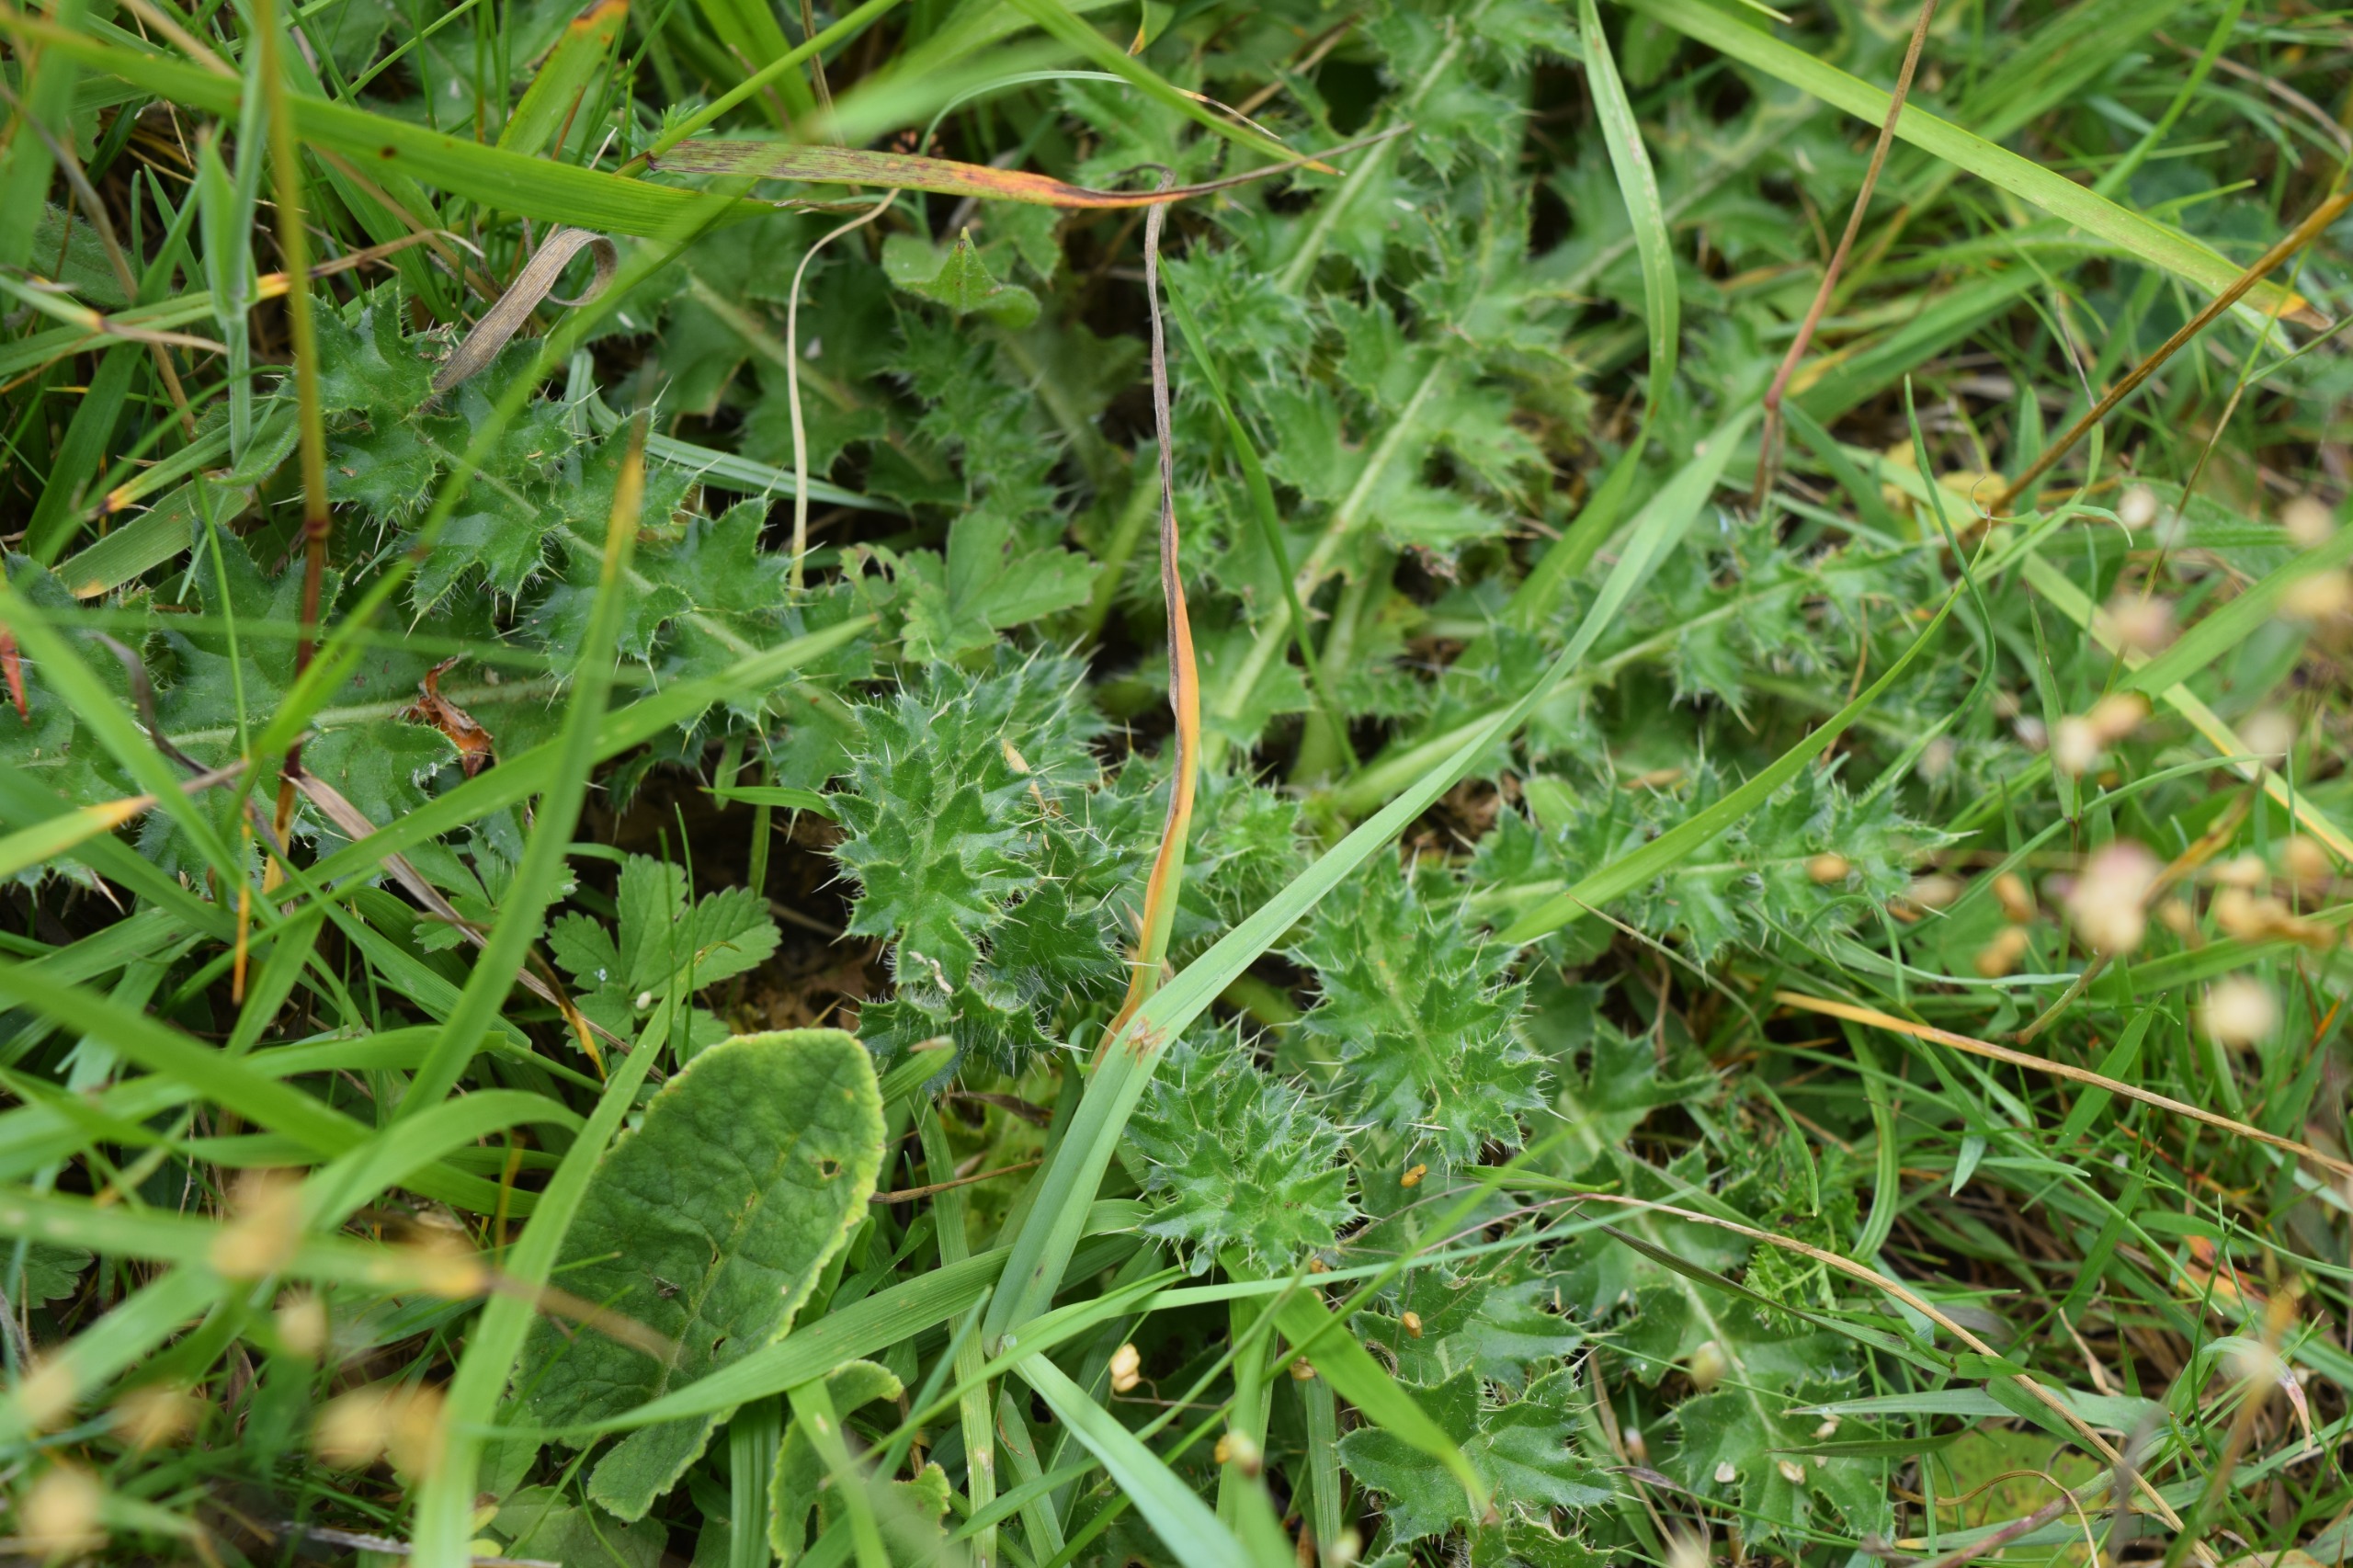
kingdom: Plantae
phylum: Tracheophyta
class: Magnoliopsida
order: Asterales
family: Asteraceae
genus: Cirsium
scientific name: Cirsium acaule
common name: Lav tidsel
